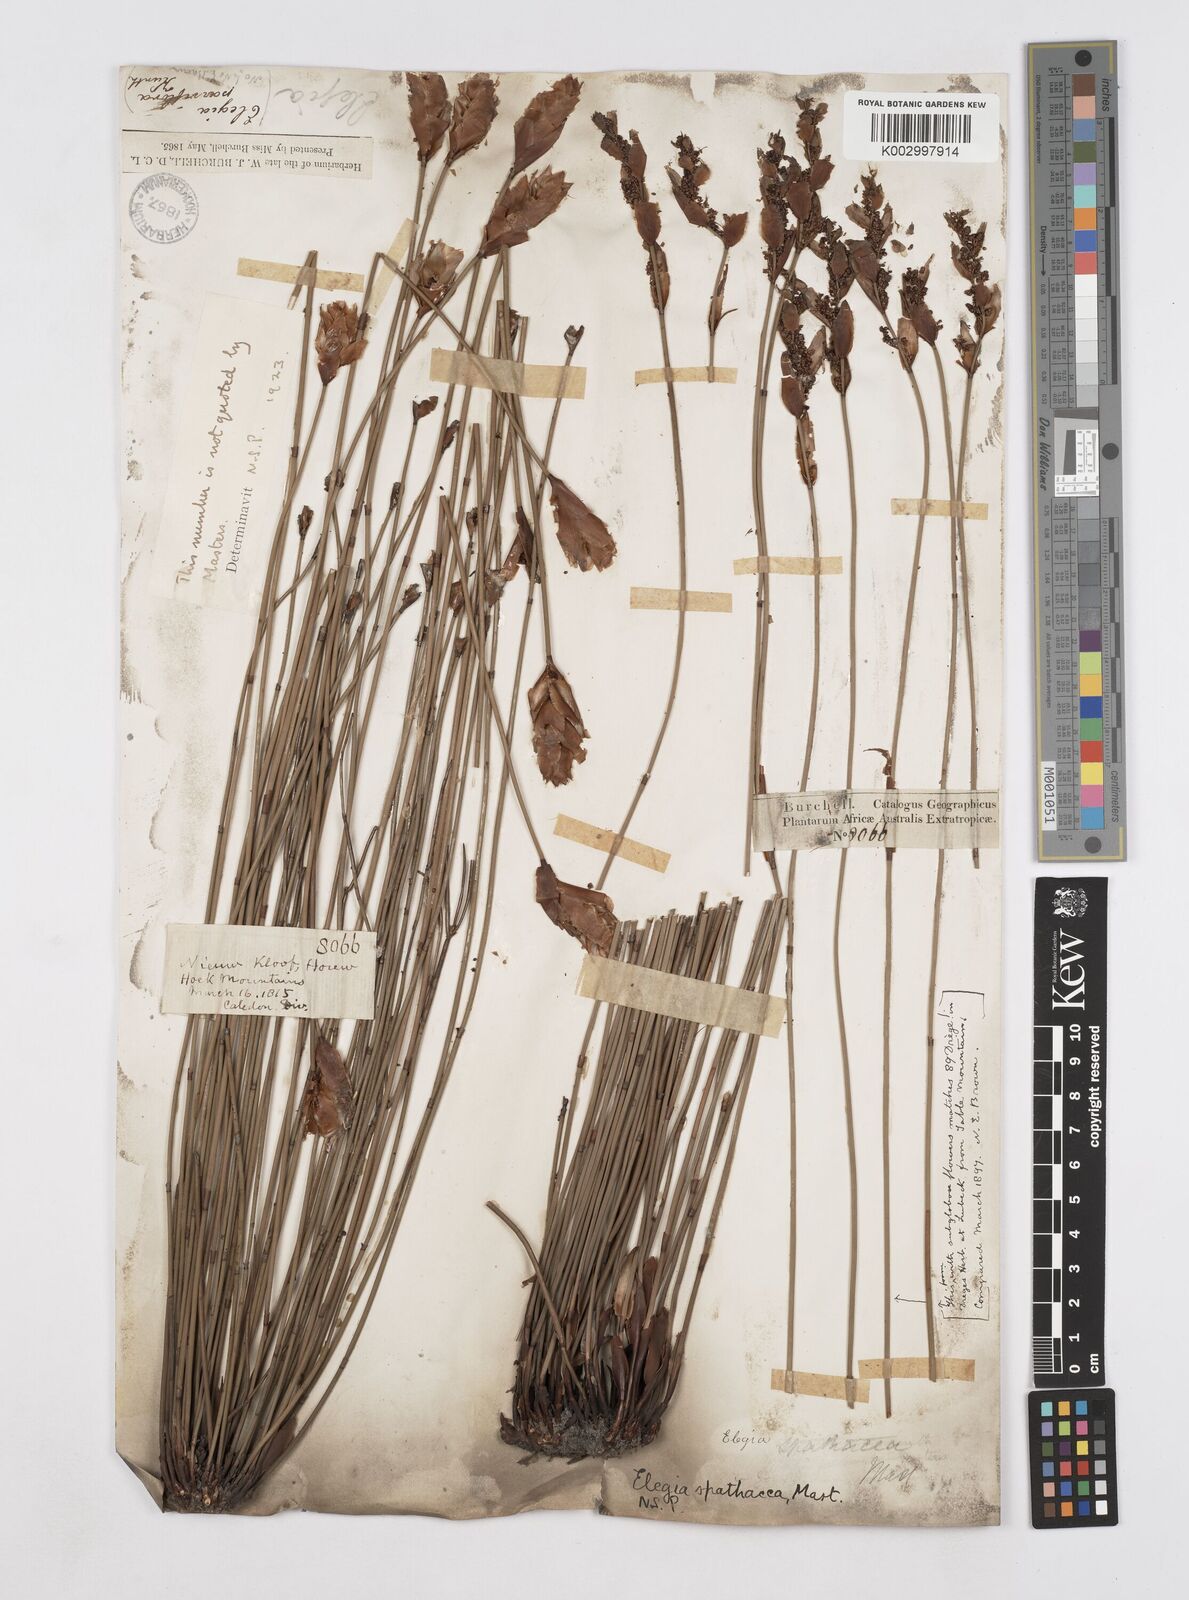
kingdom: Plantae
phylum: Tracheophyta
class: Liliopsida
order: Poales
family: Restionaceae
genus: Elegia
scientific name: Elegia spathacea
